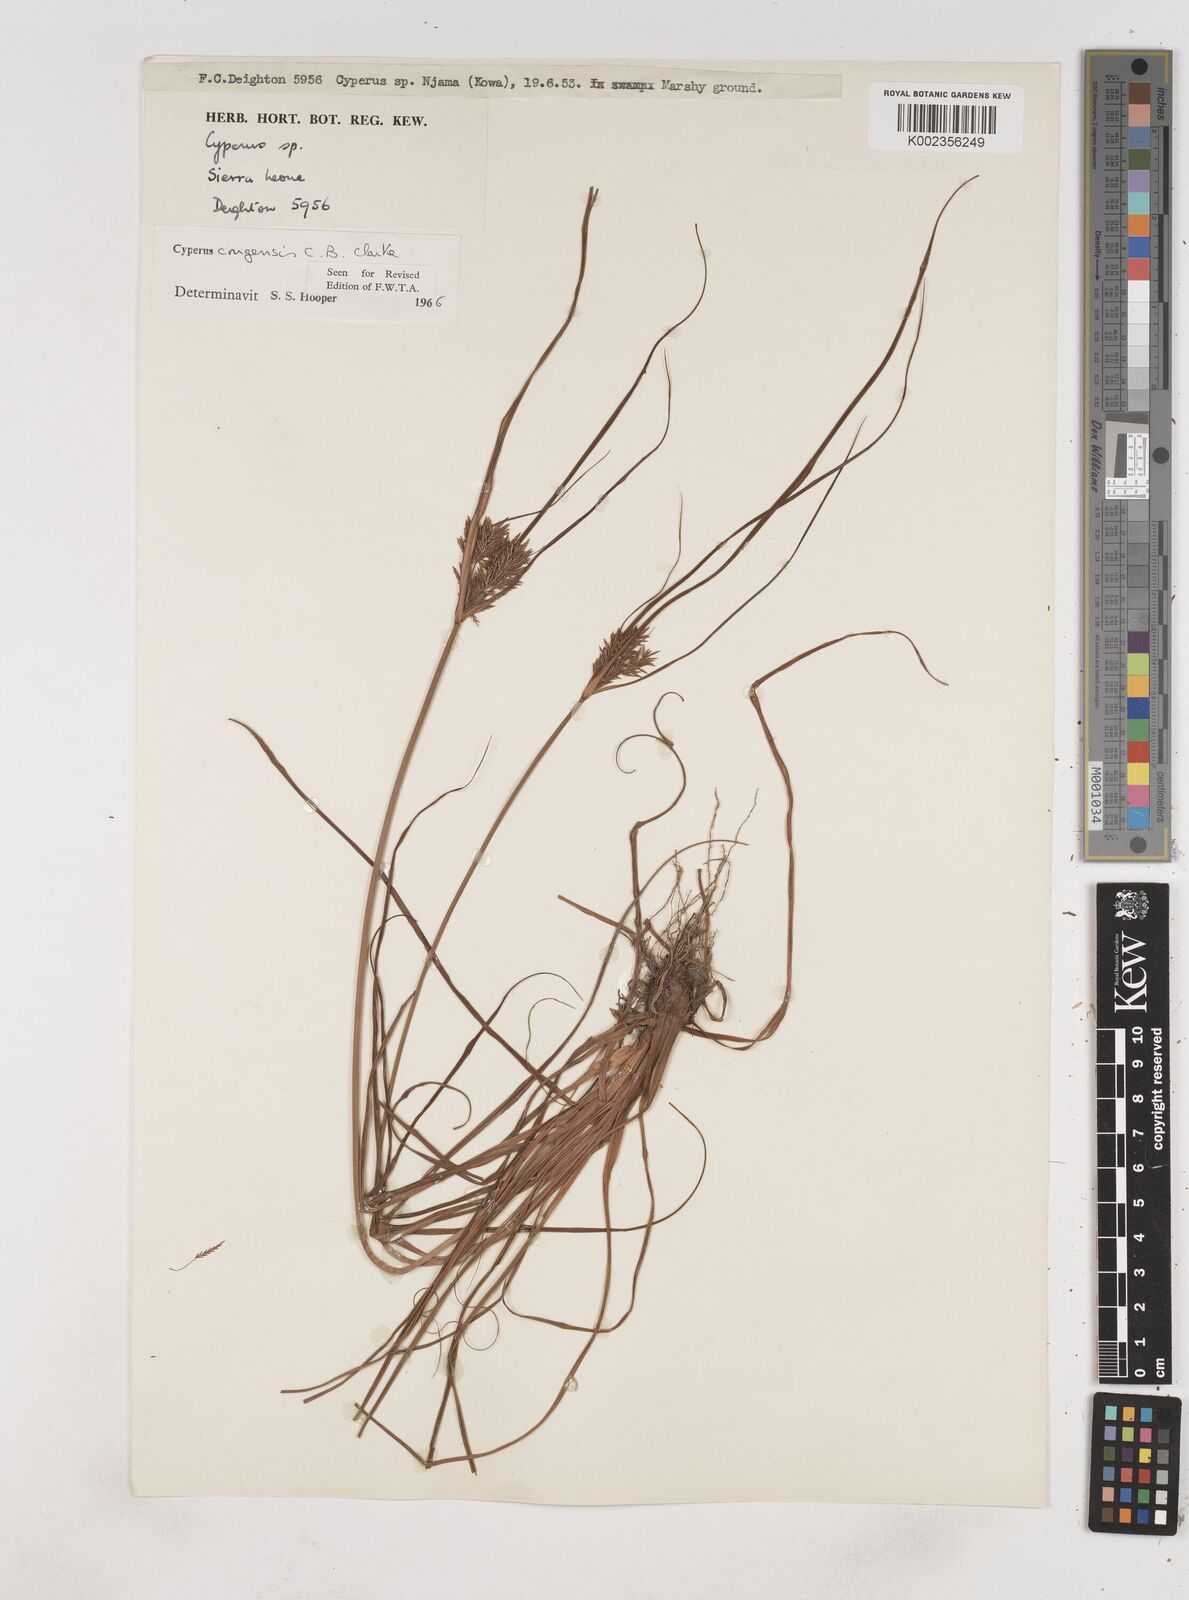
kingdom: Plantae
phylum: Tracheophyta
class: Liliopsida
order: Poales
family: Cyperaceae
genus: Cyperus
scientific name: Cyperus congensis
